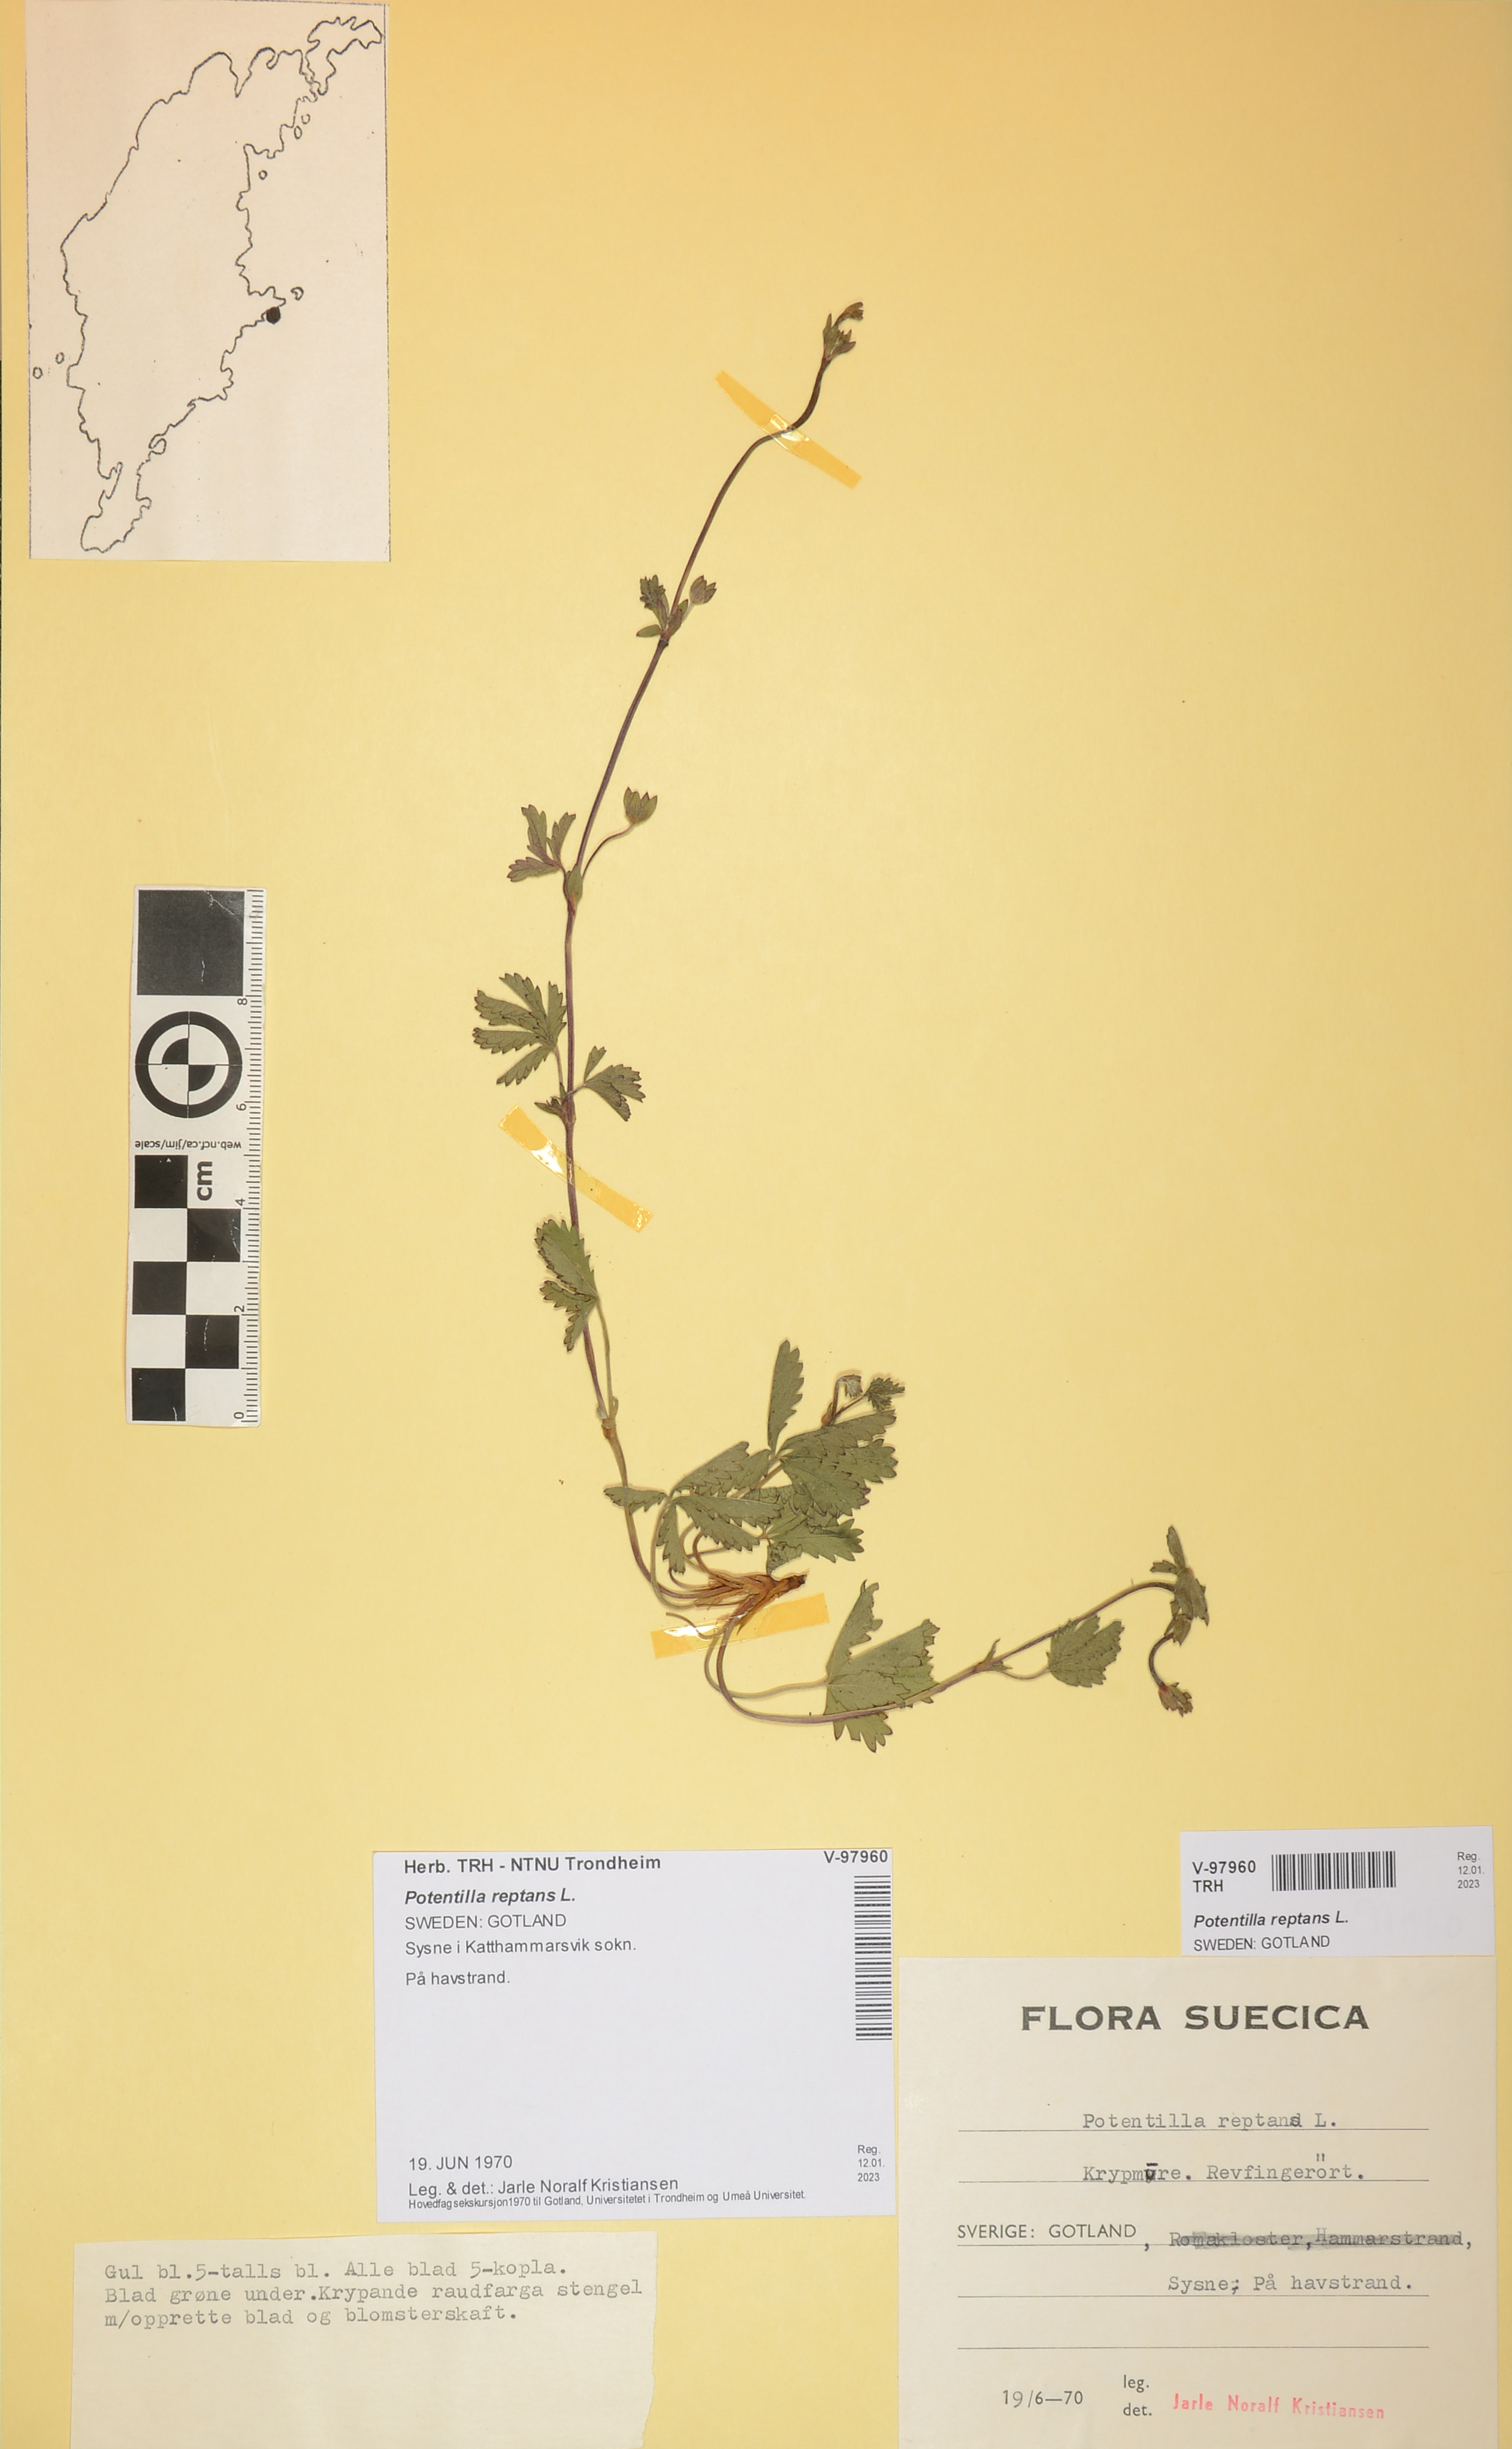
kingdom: Plantae
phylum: Tracheophyta
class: Magnoliopsida
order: Rosales
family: Rosaceae
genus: Potentilla
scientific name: Potentilla reptans
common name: Creeping cinquefoil
